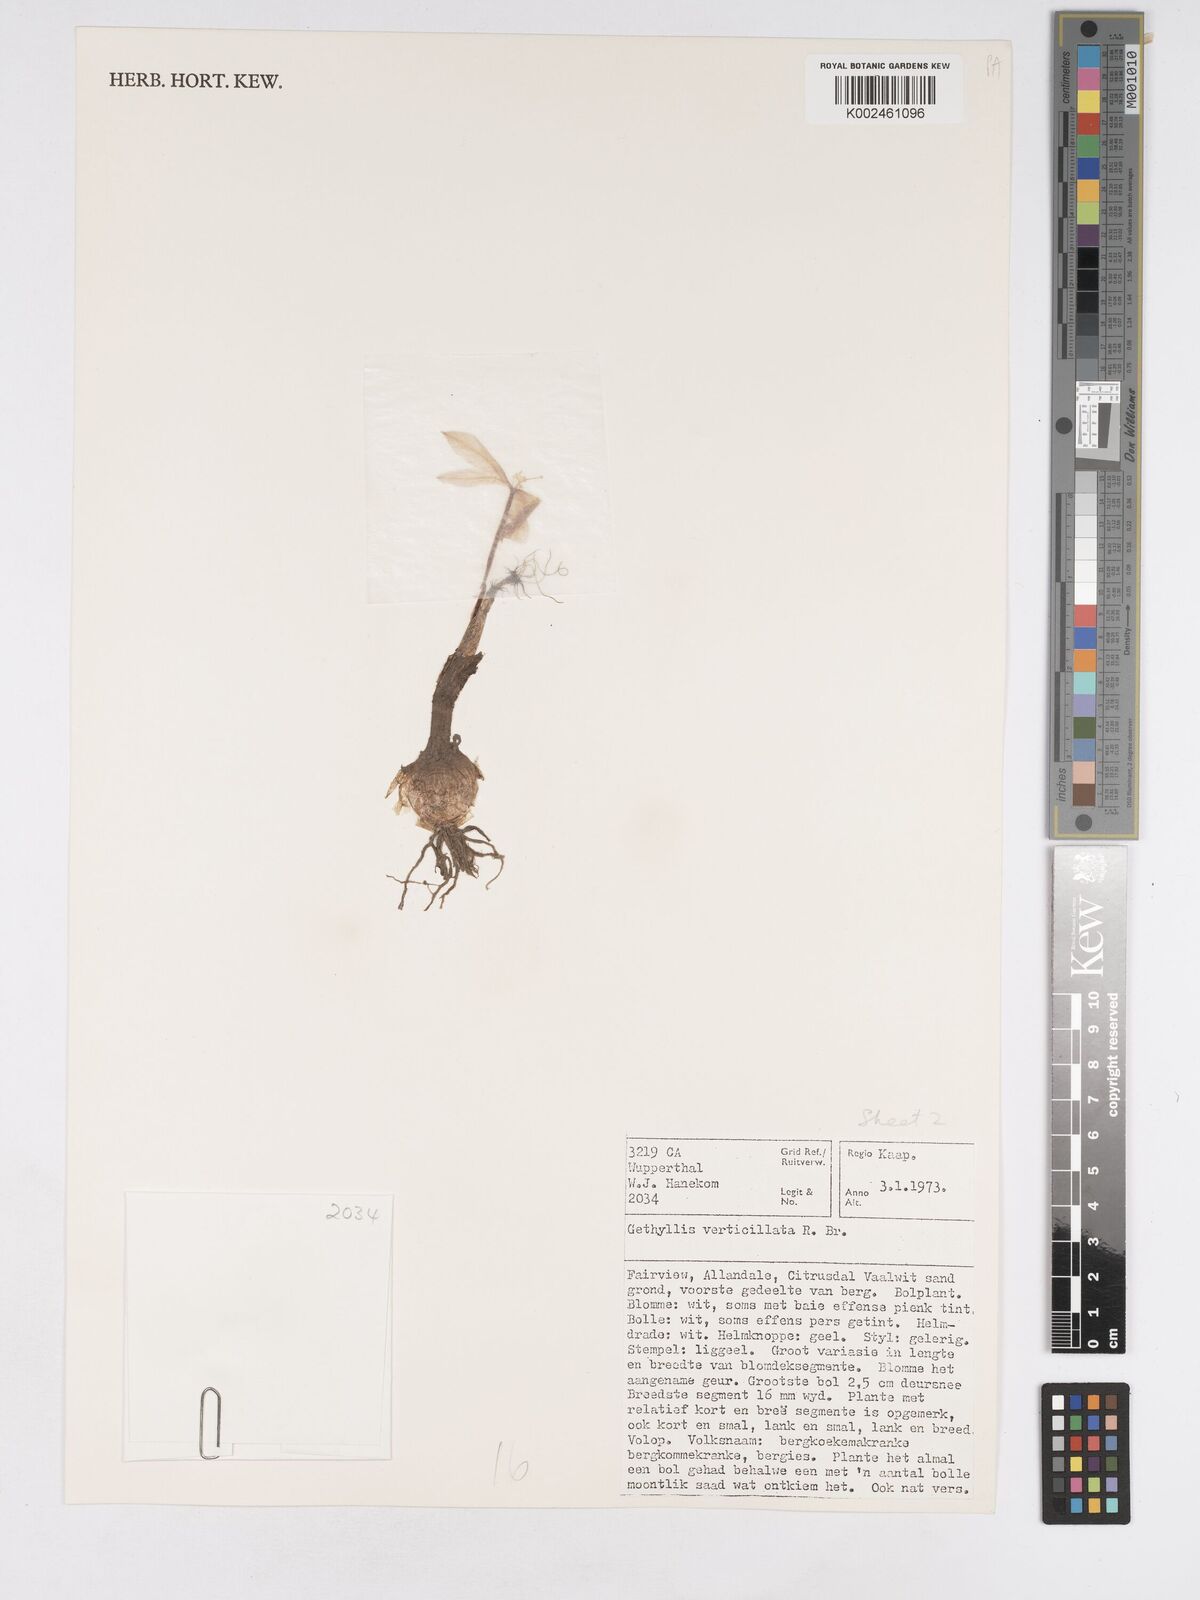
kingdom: Plantae
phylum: Tracheophyta
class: Liliopsida
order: Asparagales
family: Amaryllidaceae
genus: Gethyllis
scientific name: Gethyllis verticillata
